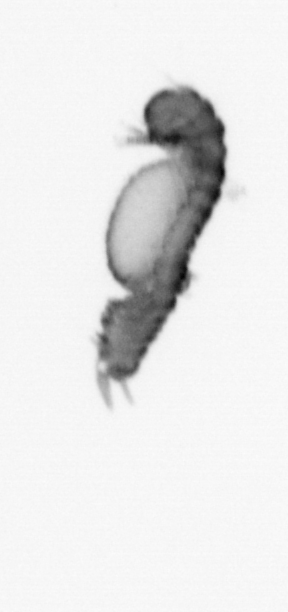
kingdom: Animalia
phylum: Annelida
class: Polychaeta
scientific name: Polychaeta
